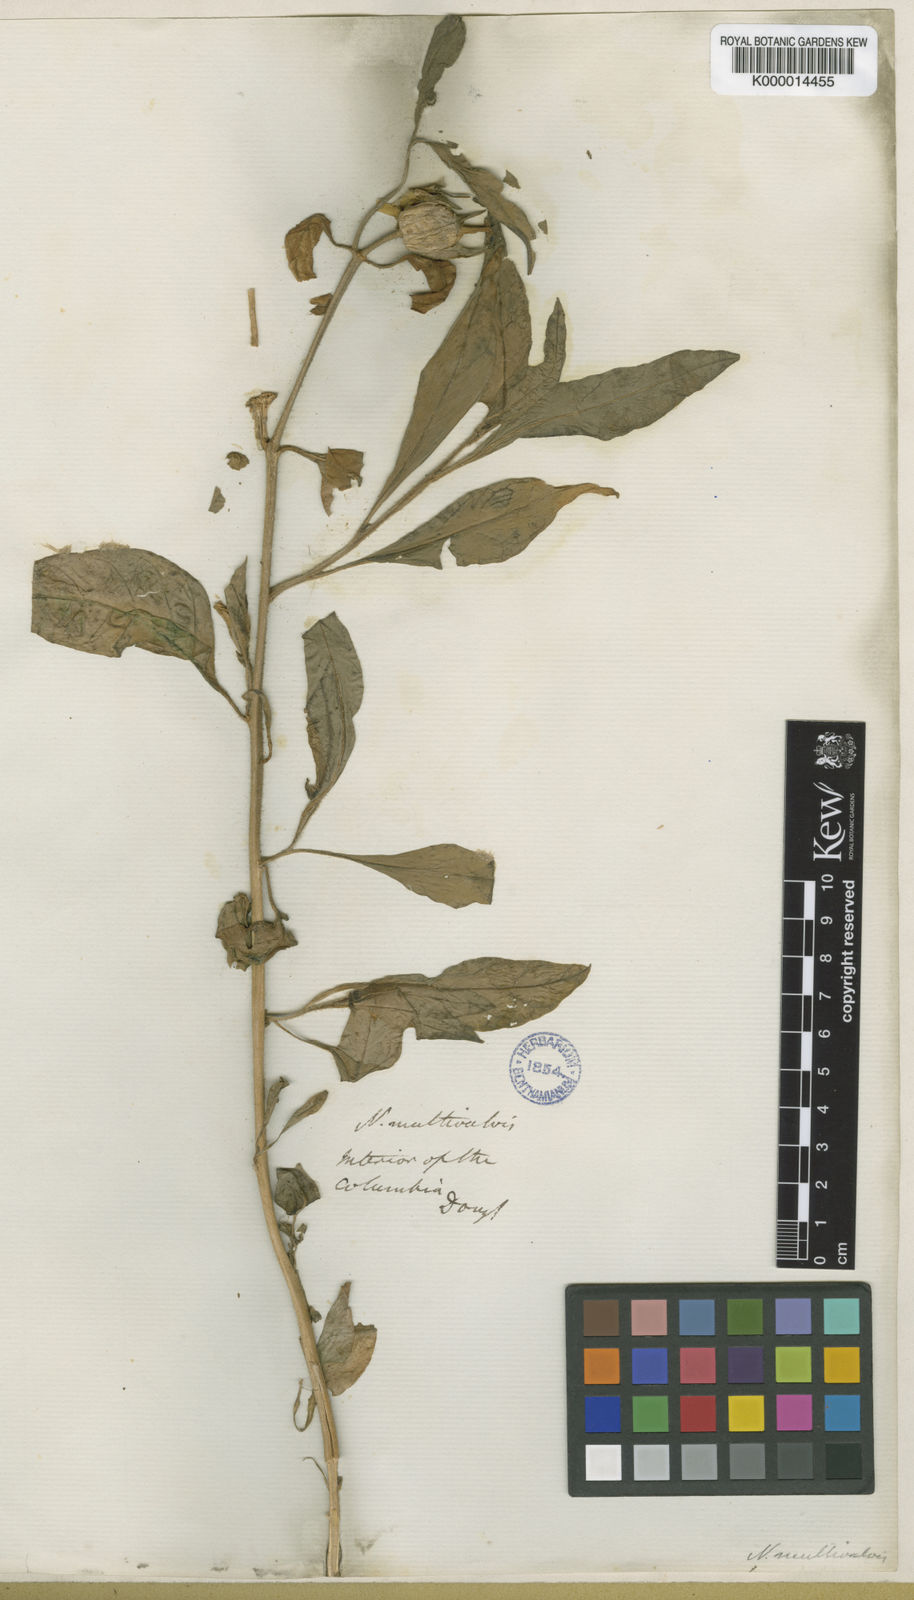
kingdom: Plantae
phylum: Tracheophyta
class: Magnoliopsida
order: Solanales
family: Solanaceae
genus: Nicotiana
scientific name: Nicotiana quadrivalvis
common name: Indian tobacco
